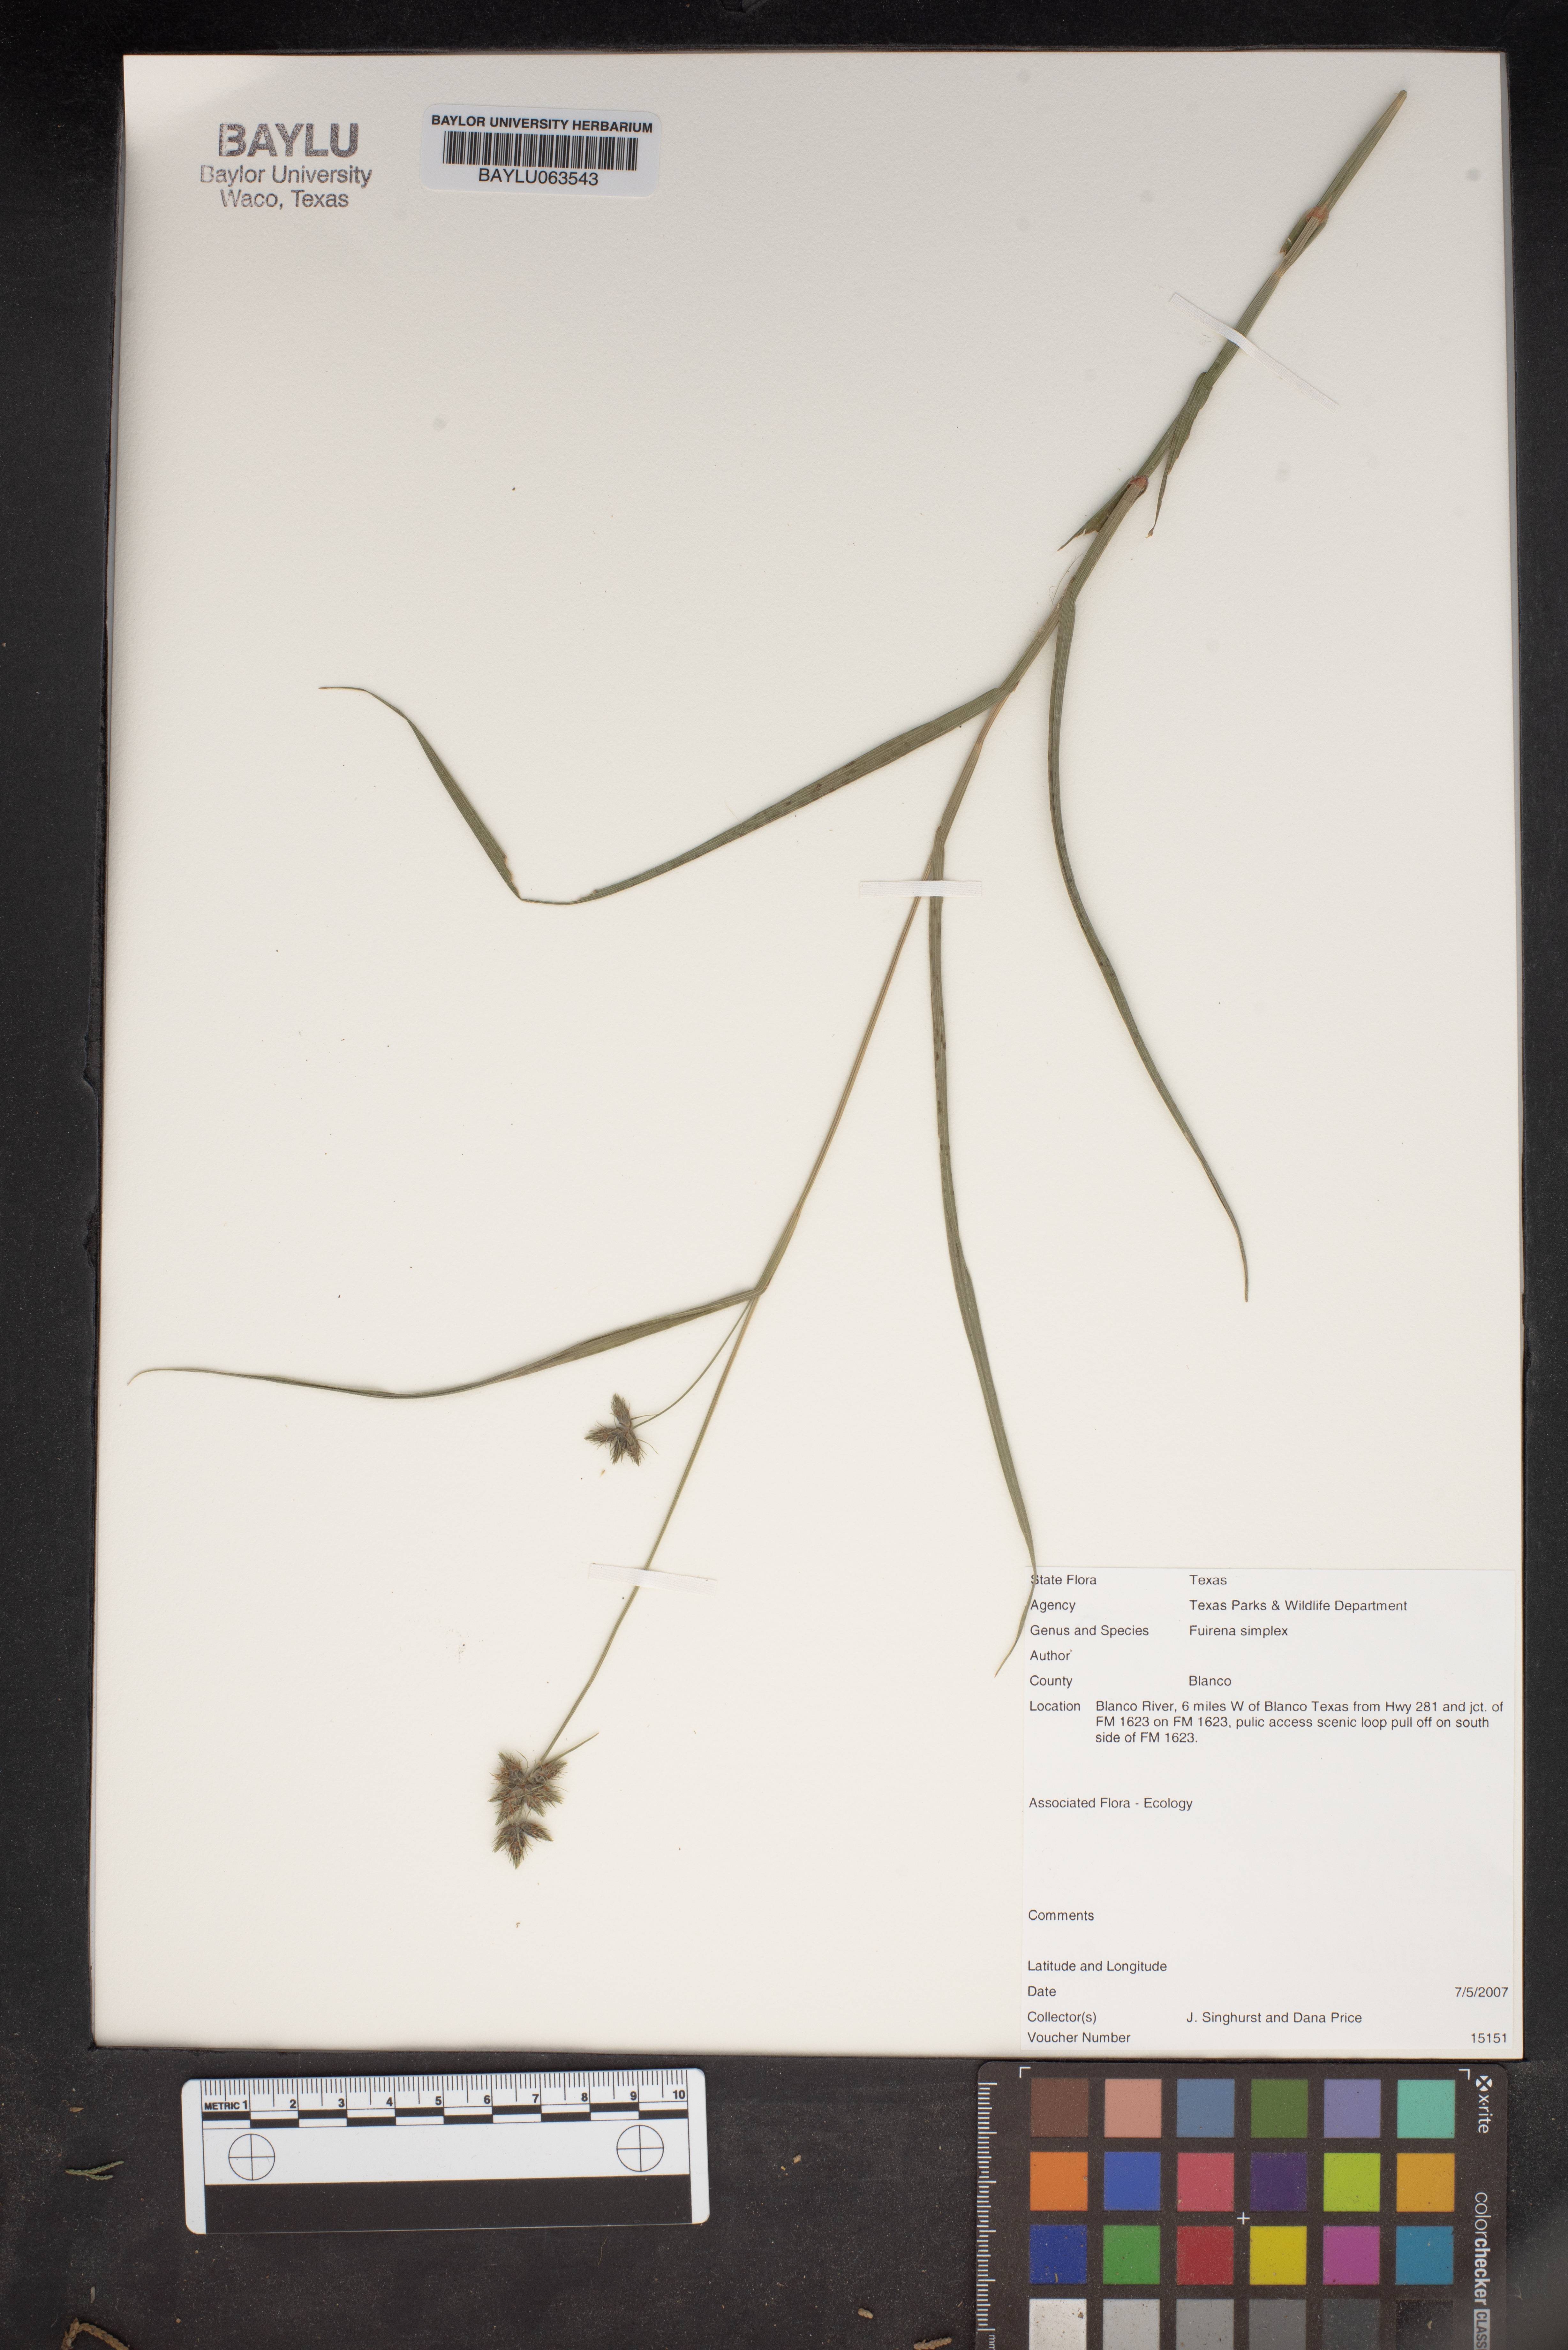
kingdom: Plantae
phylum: Tracheophyta
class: Liliopsida
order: Poales
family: Cyperaceae
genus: Fuirena
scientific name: Fuirena simplex
